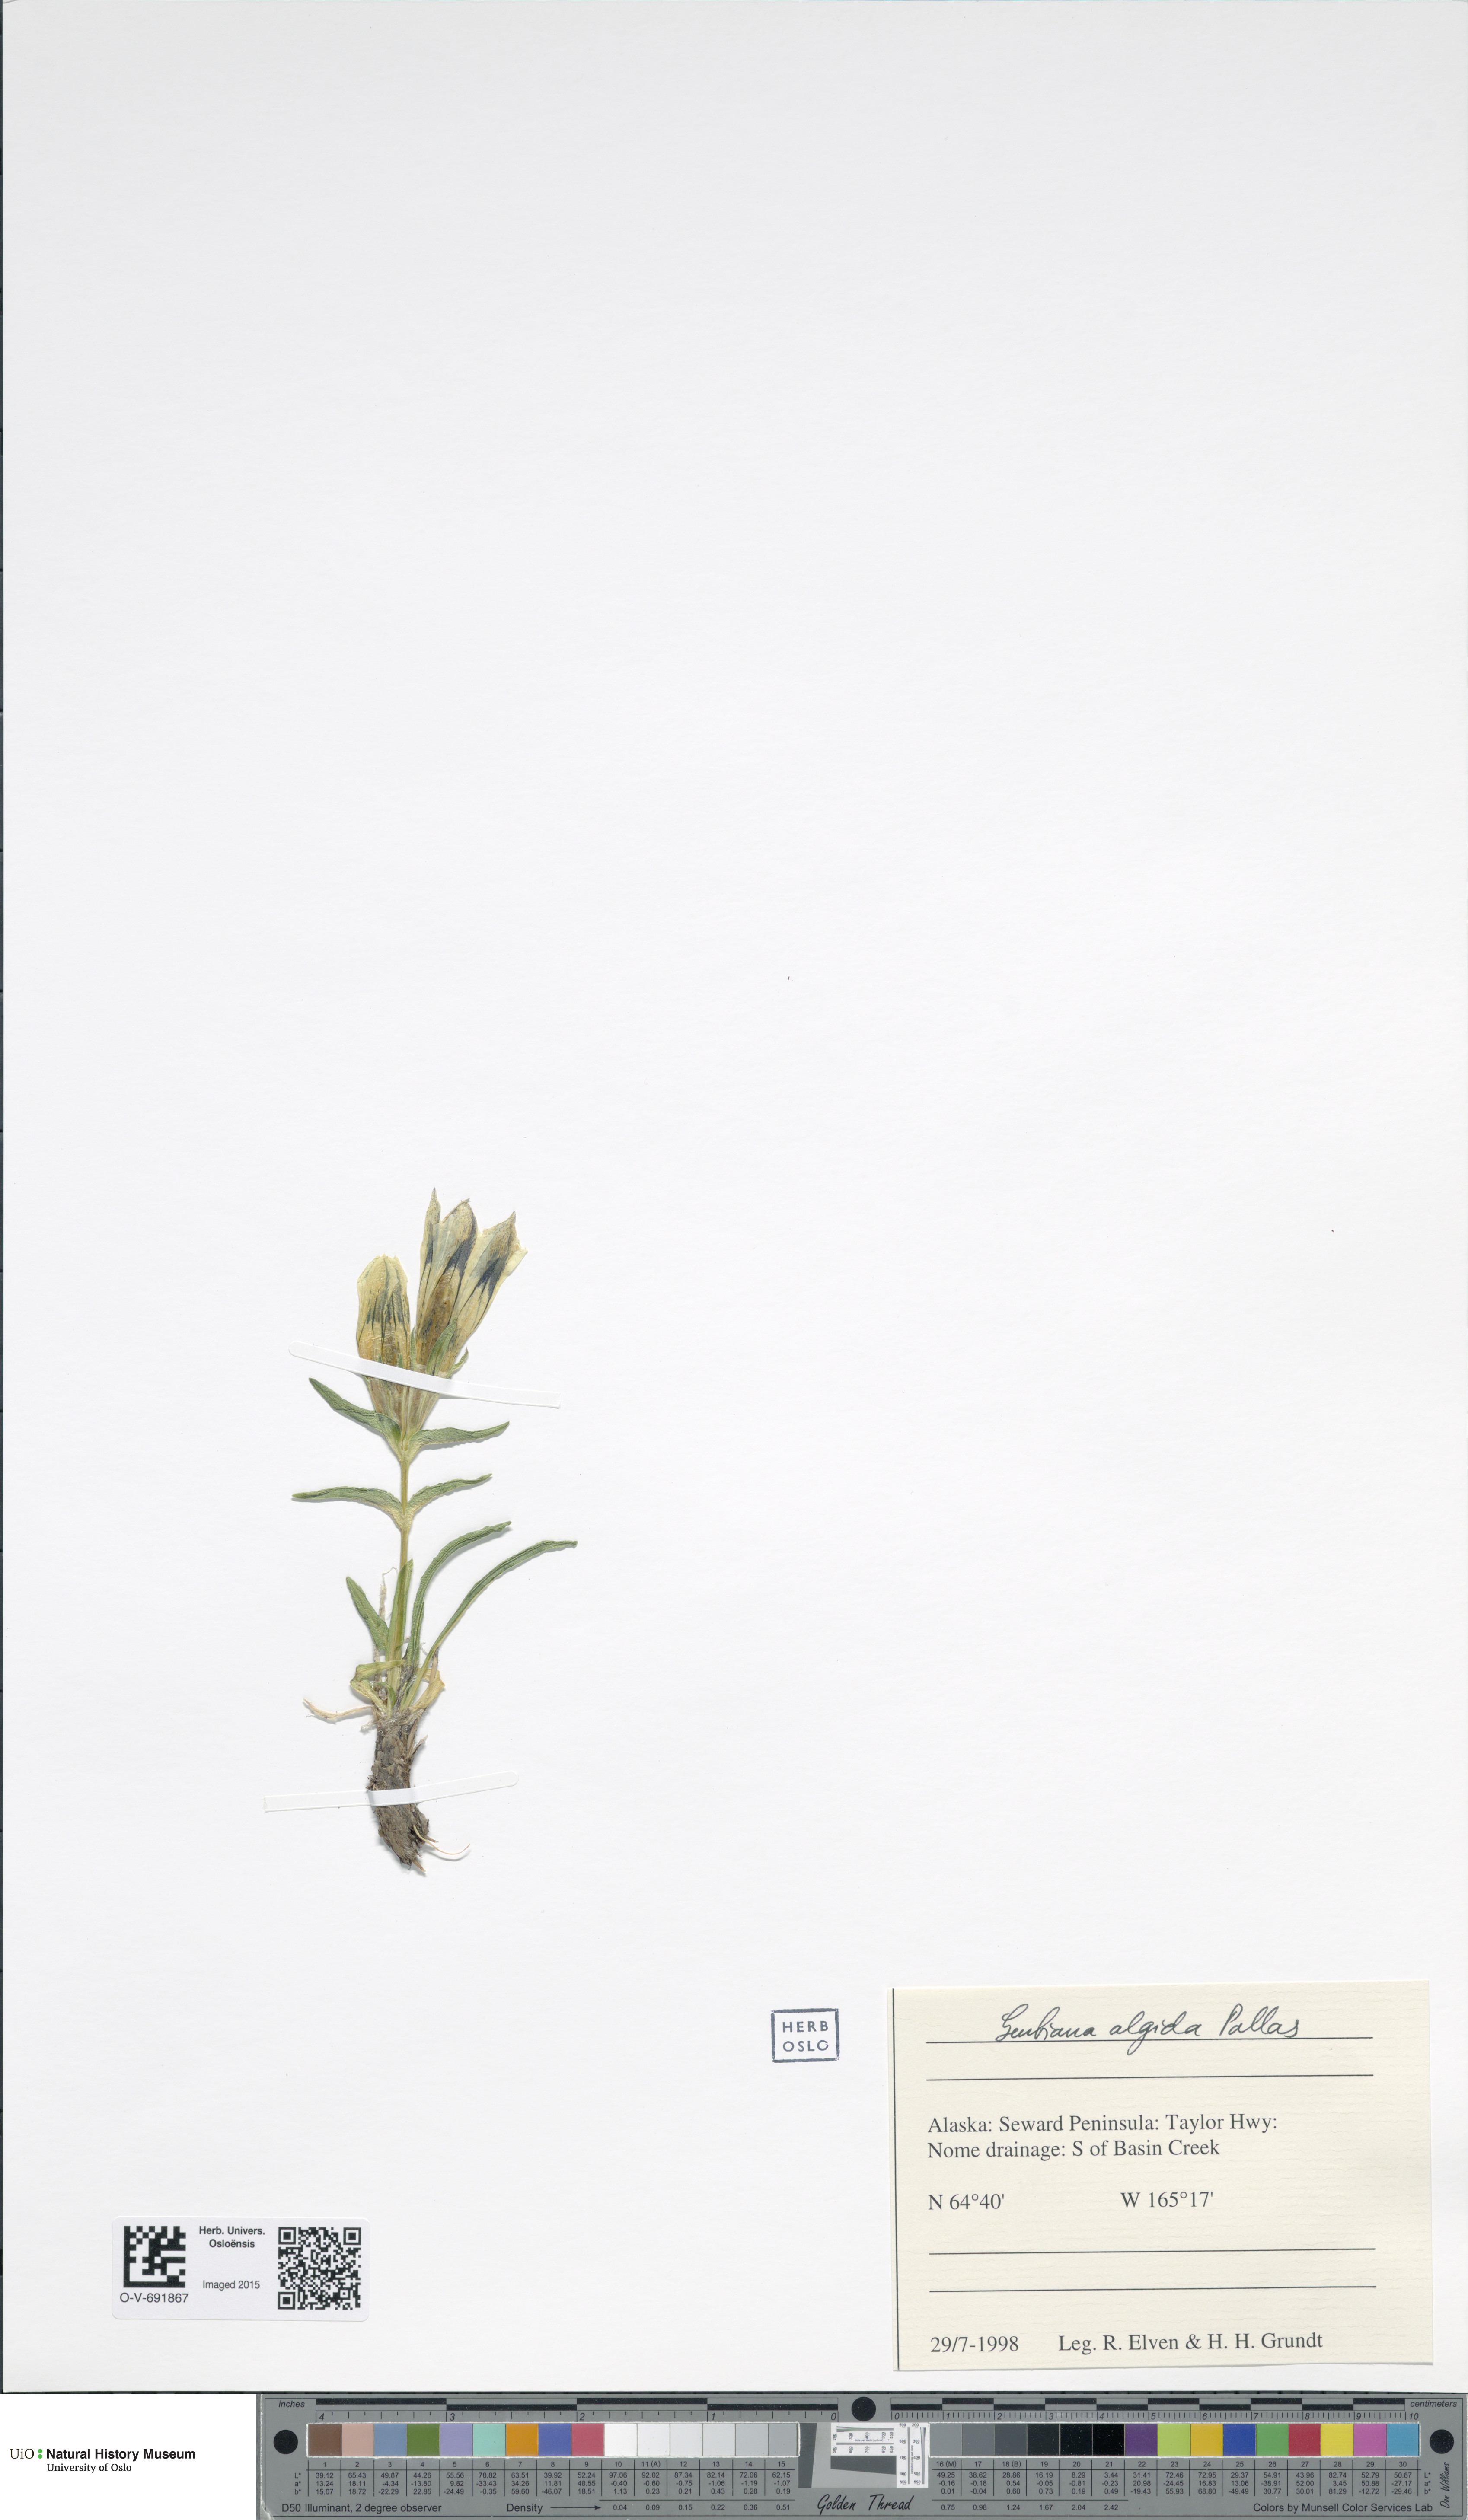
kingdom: Plantae
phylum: Tracheophyta
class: Magnoliopsida
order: Gentianales
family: Gentianaceae
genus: Gentiana
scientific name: Gentiana algida
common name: Arctic gentian
